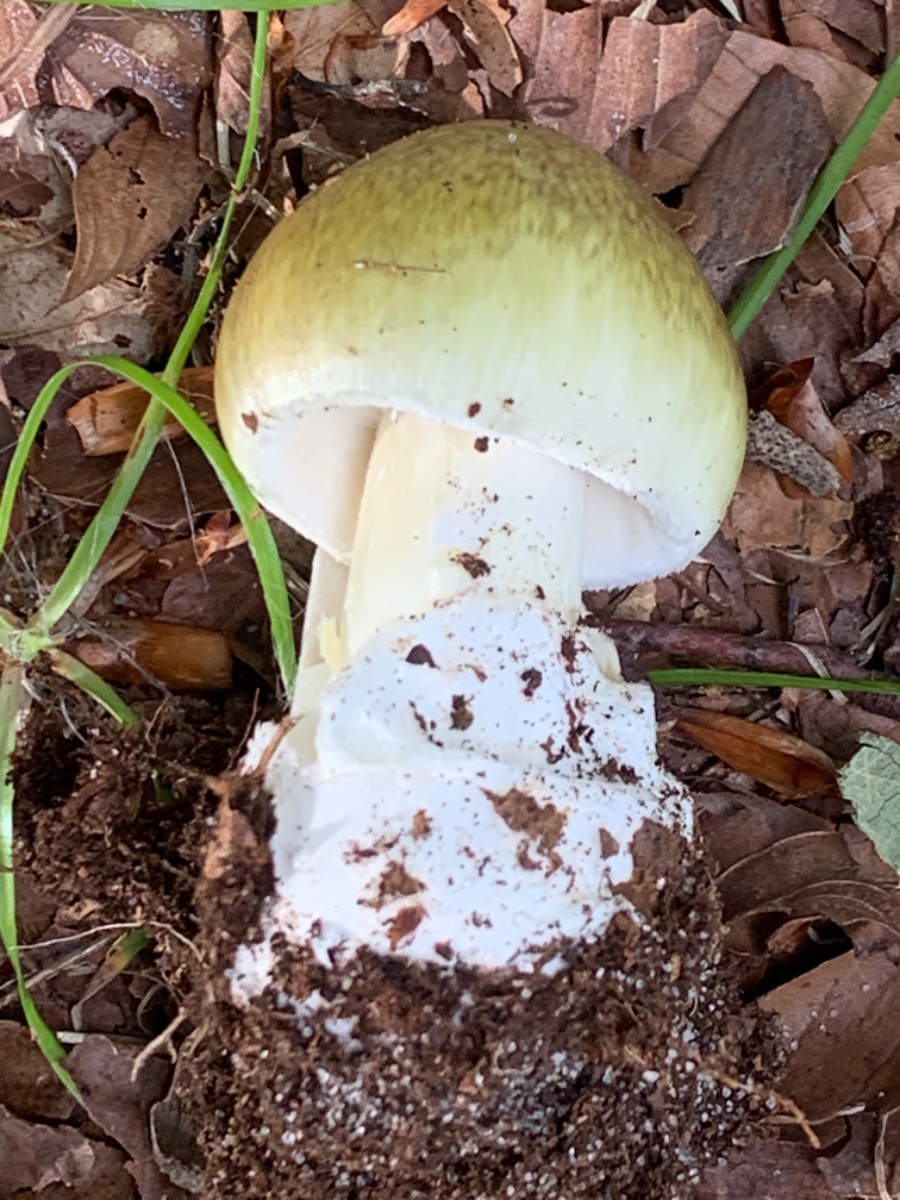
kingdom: Fungi
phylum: Basidiomycota
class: Agaricomycetes
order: Agaricales
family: Amanitaceae
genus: Amanita
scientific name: Amanita phalloides
